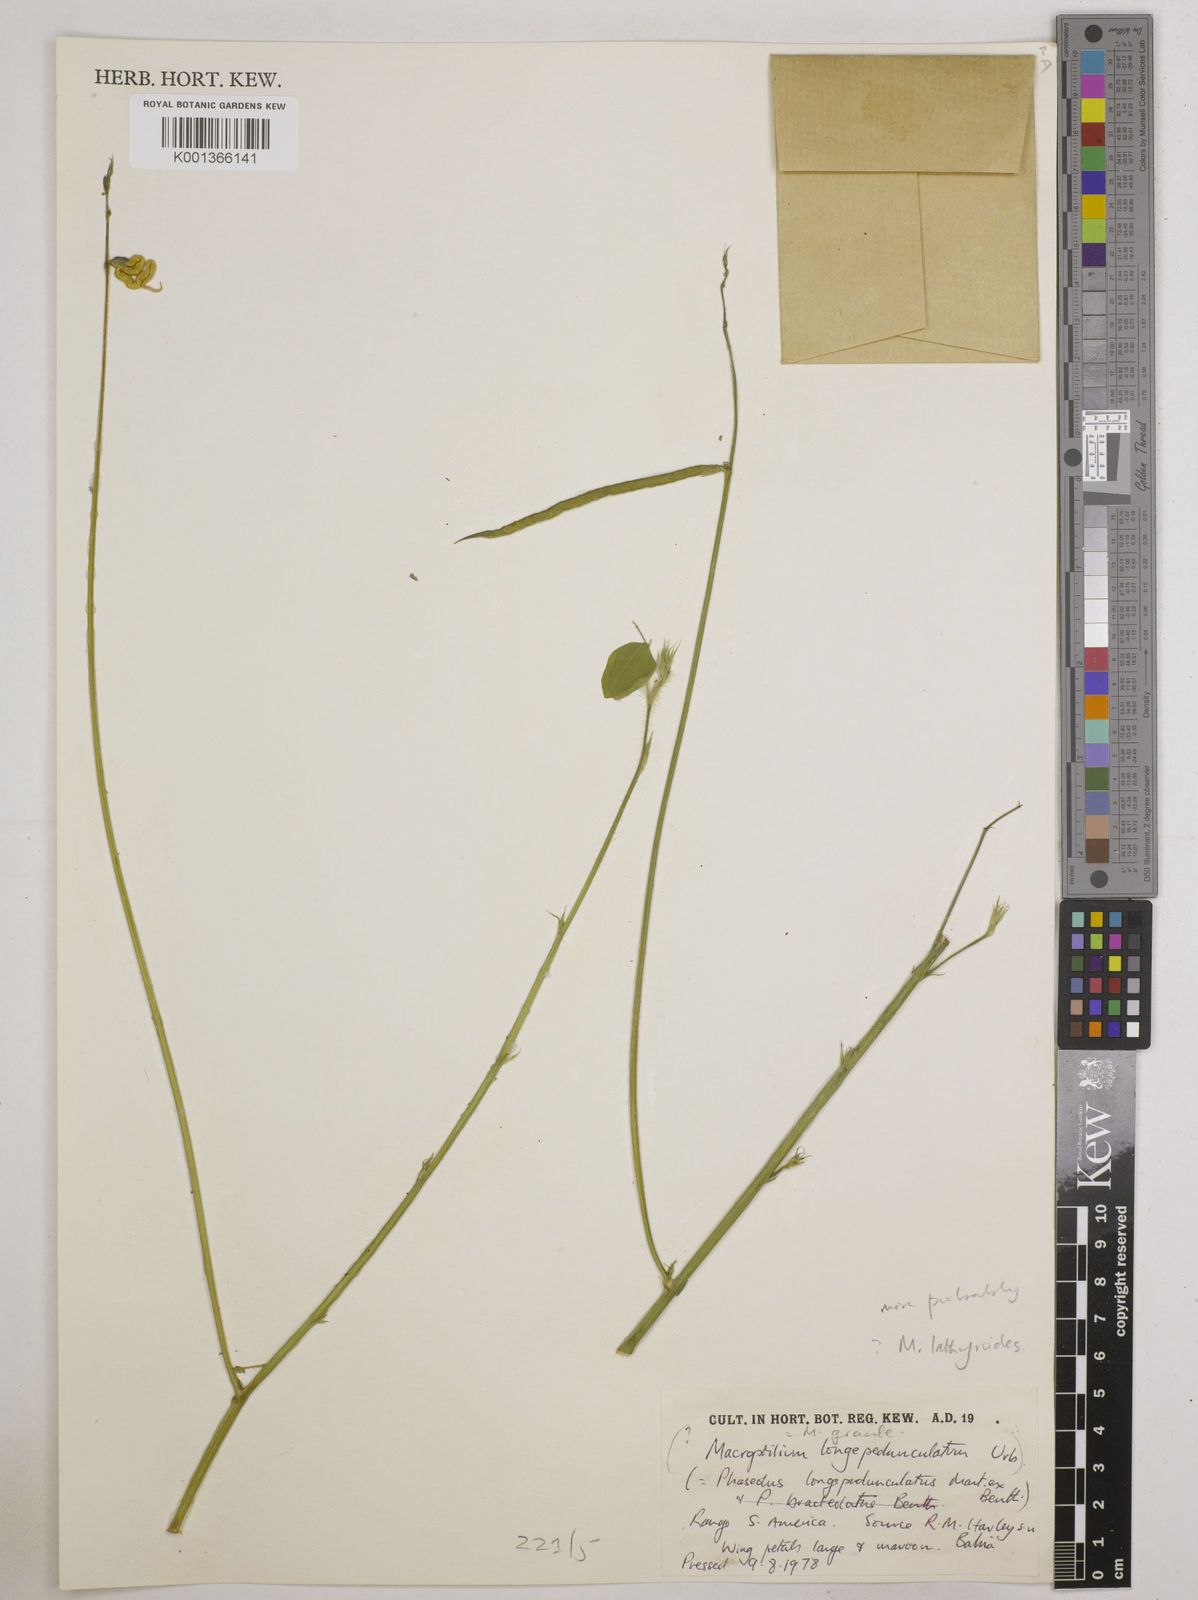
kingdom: Plantae
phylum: Tracheophyta
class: Magnoliopsida
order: Fabales
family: Fabaceae
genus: Macroptilium
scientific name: Macroptilium lathyroides
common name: Wild bushbean
